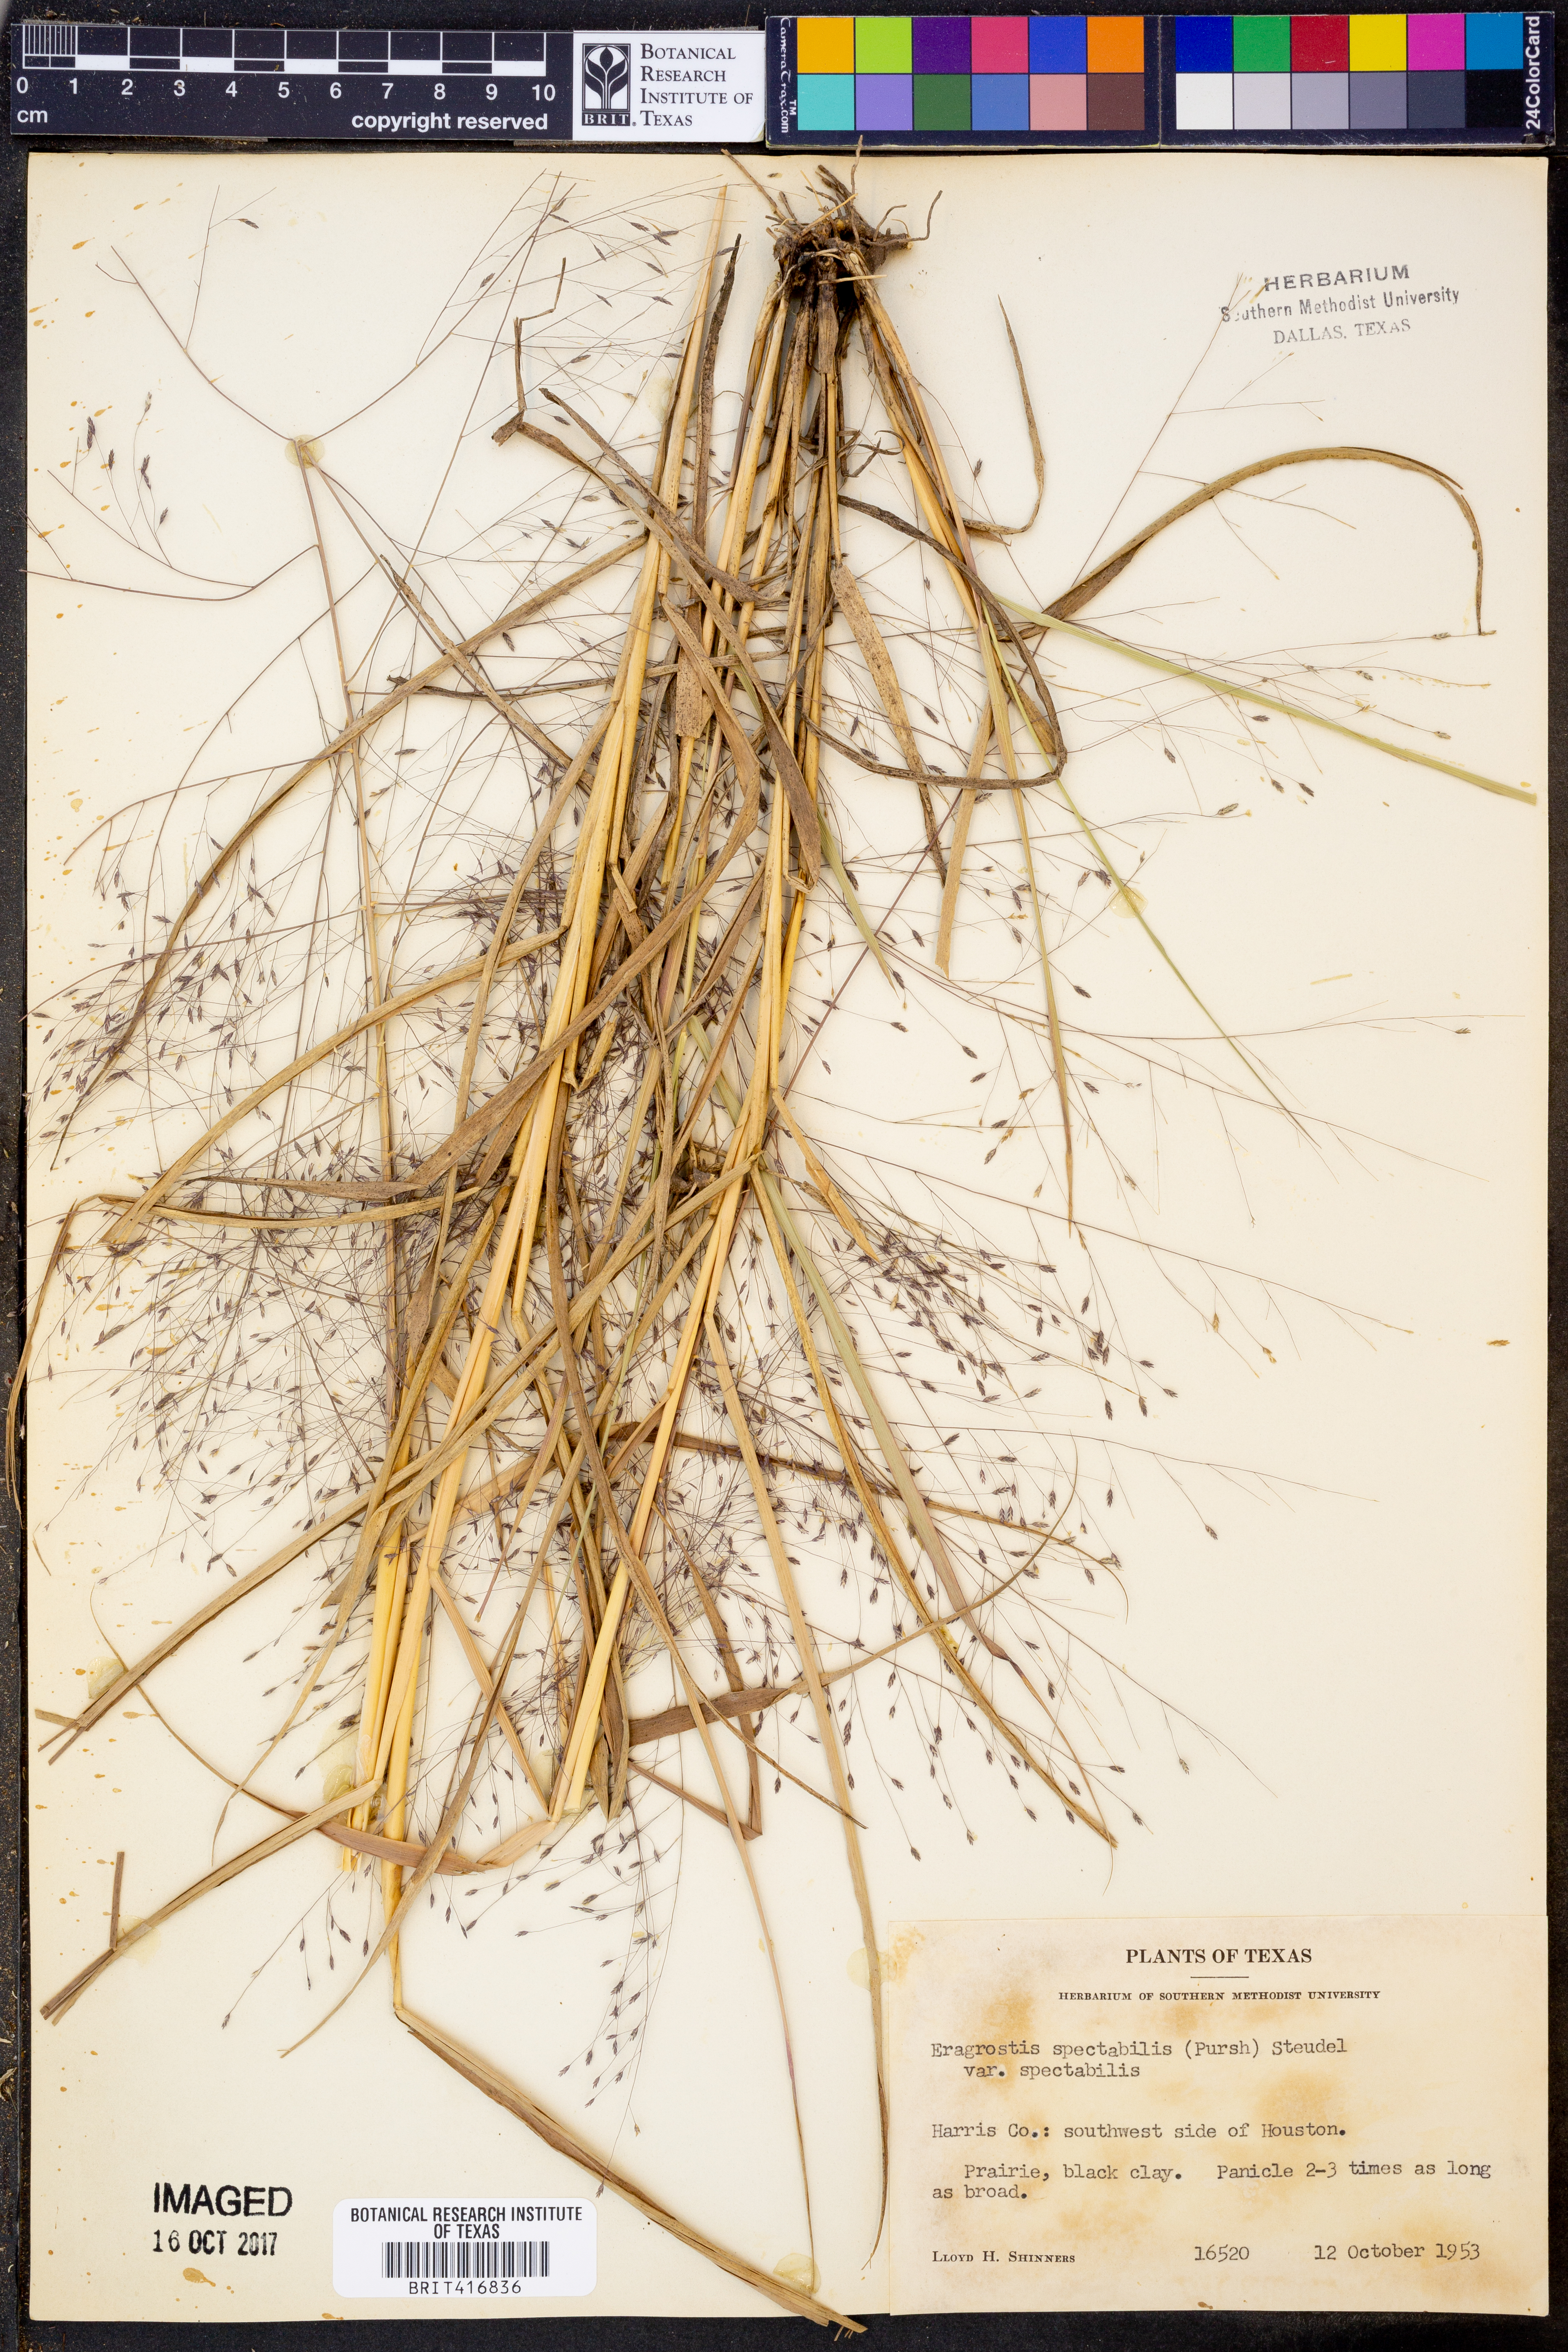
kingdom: Plantae
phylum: Tracheophyta
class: Liliopsida
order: Poales
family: Poaceae
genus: Eragrostis
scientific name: Eragrostis spectabilis
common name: Petticoat-climber
